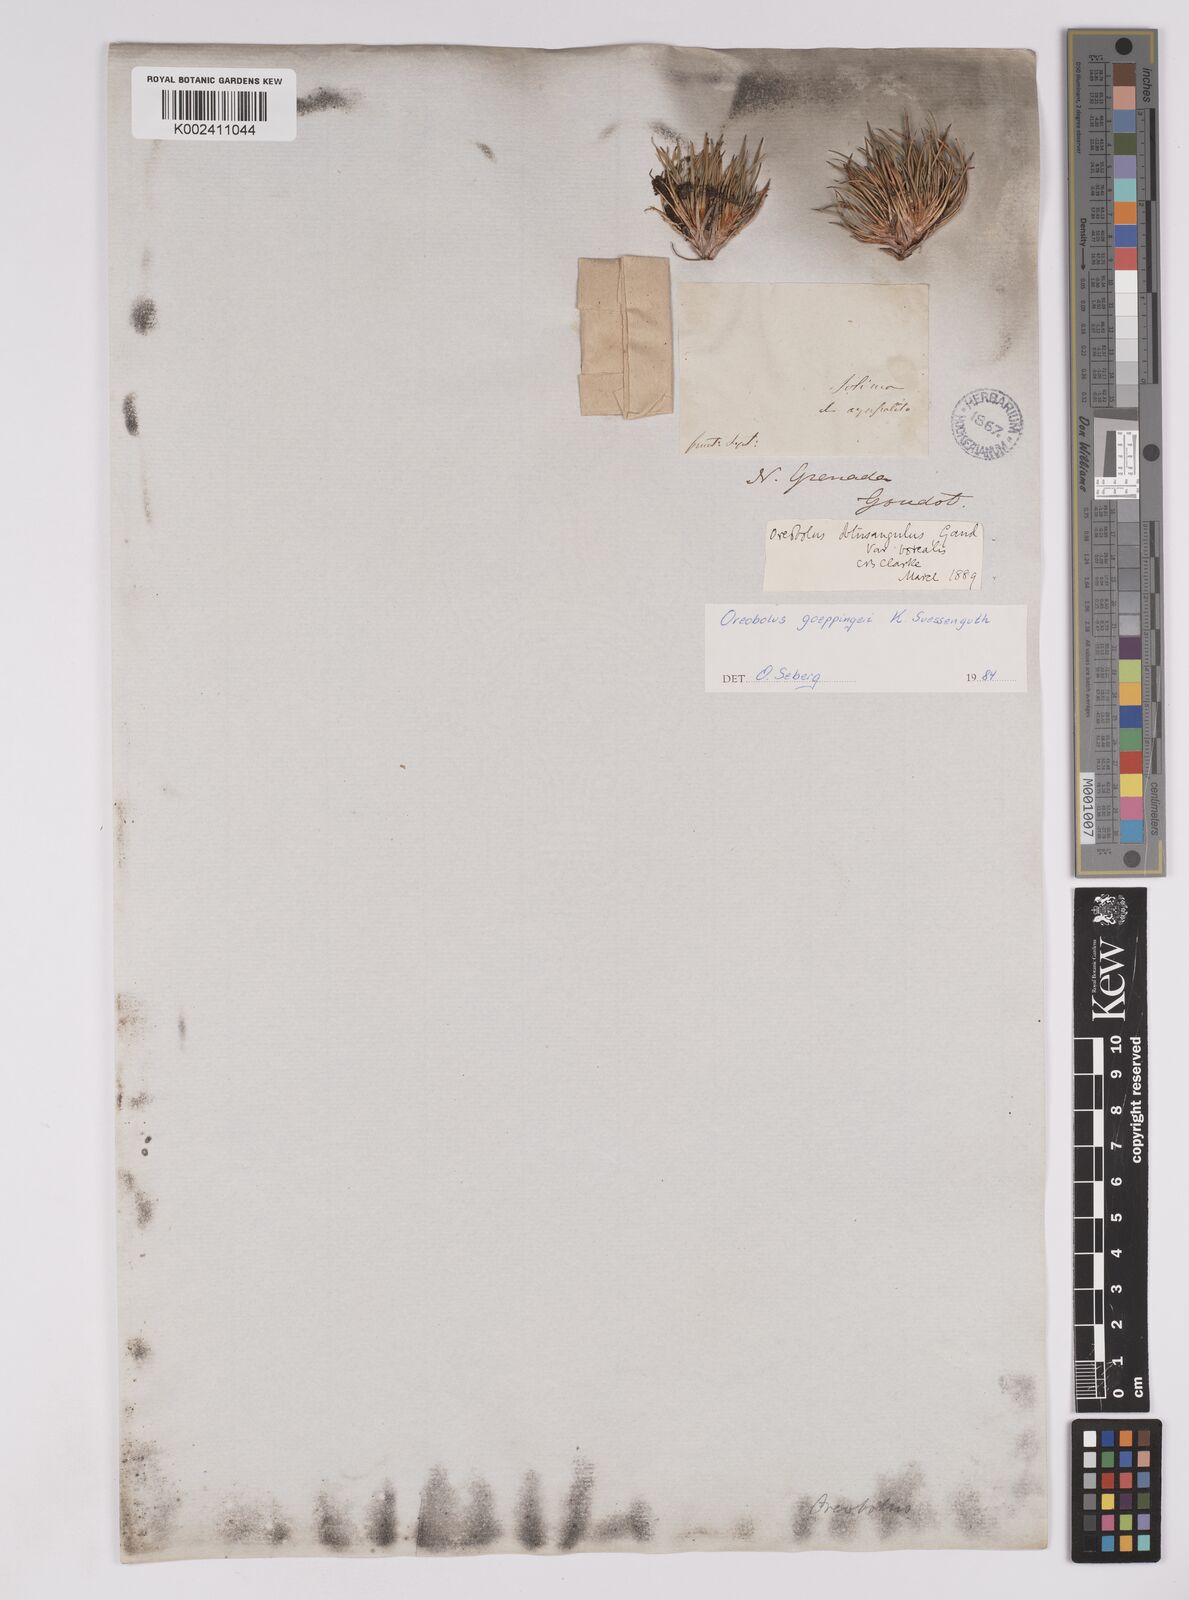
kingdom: Plantae
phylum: Tracheophyta
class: Liliopsida
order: Poales
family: Cyperaceae
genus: Oreobolus
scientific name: Oreobolus goeppingeri
